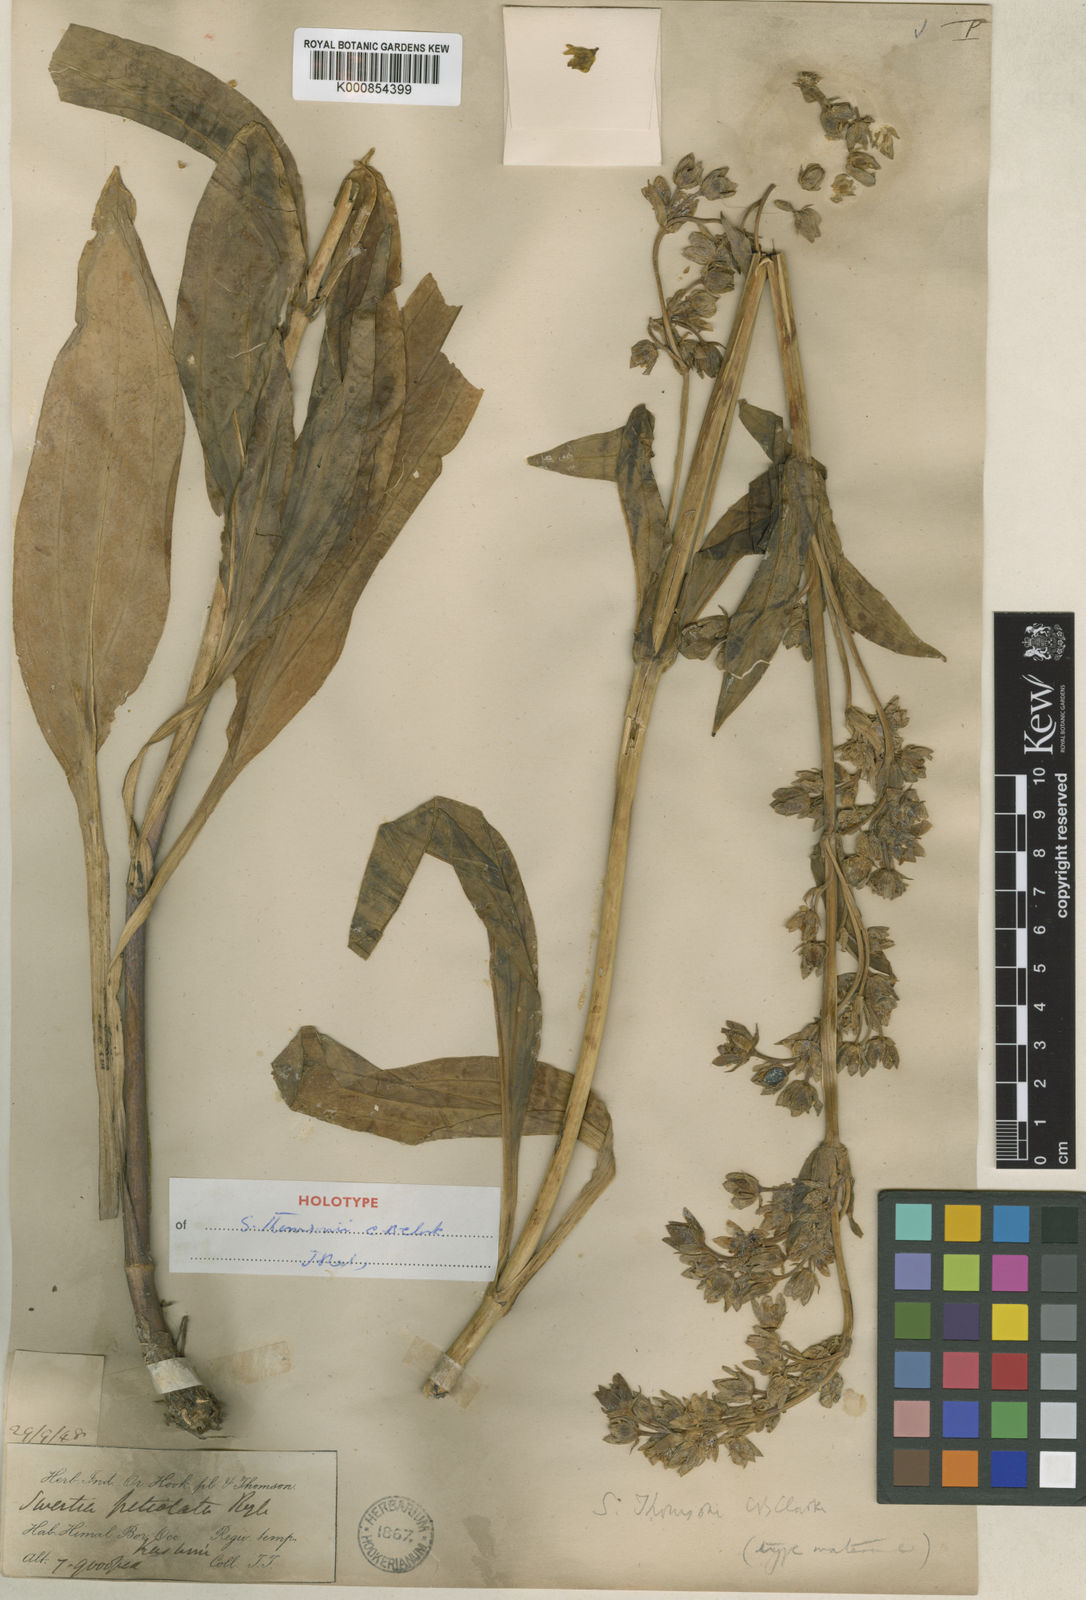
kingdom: Plantae
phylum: Tracheophyta
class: Magnoliopsida
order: Gentianales
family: Gentianaceae
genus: Swertia
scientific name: Swertia thomsonii
